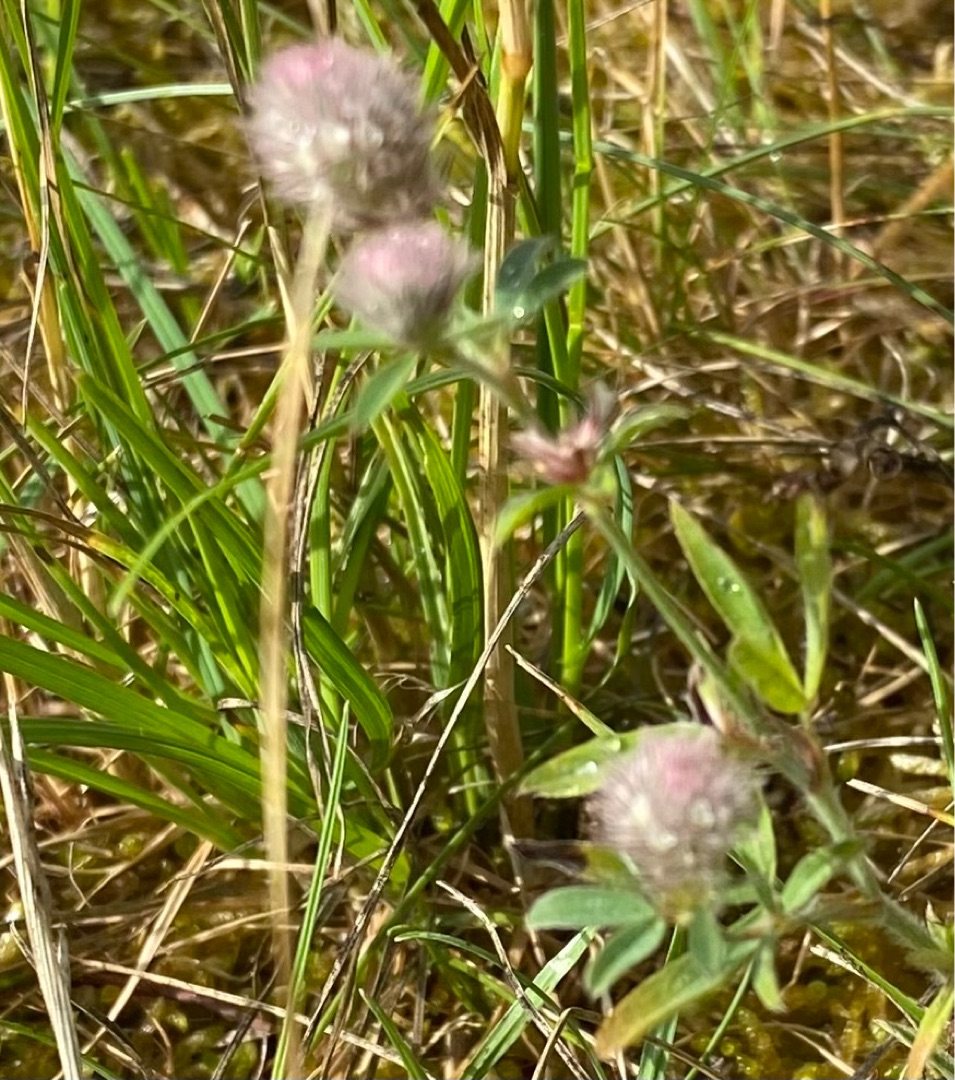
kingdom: Plantae
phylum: Tracheophyta
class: Magnoliopsida
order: Fabales
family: Fabaceae
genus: Trifolium
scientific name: Trifolium arvense
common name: Hare-kløver
